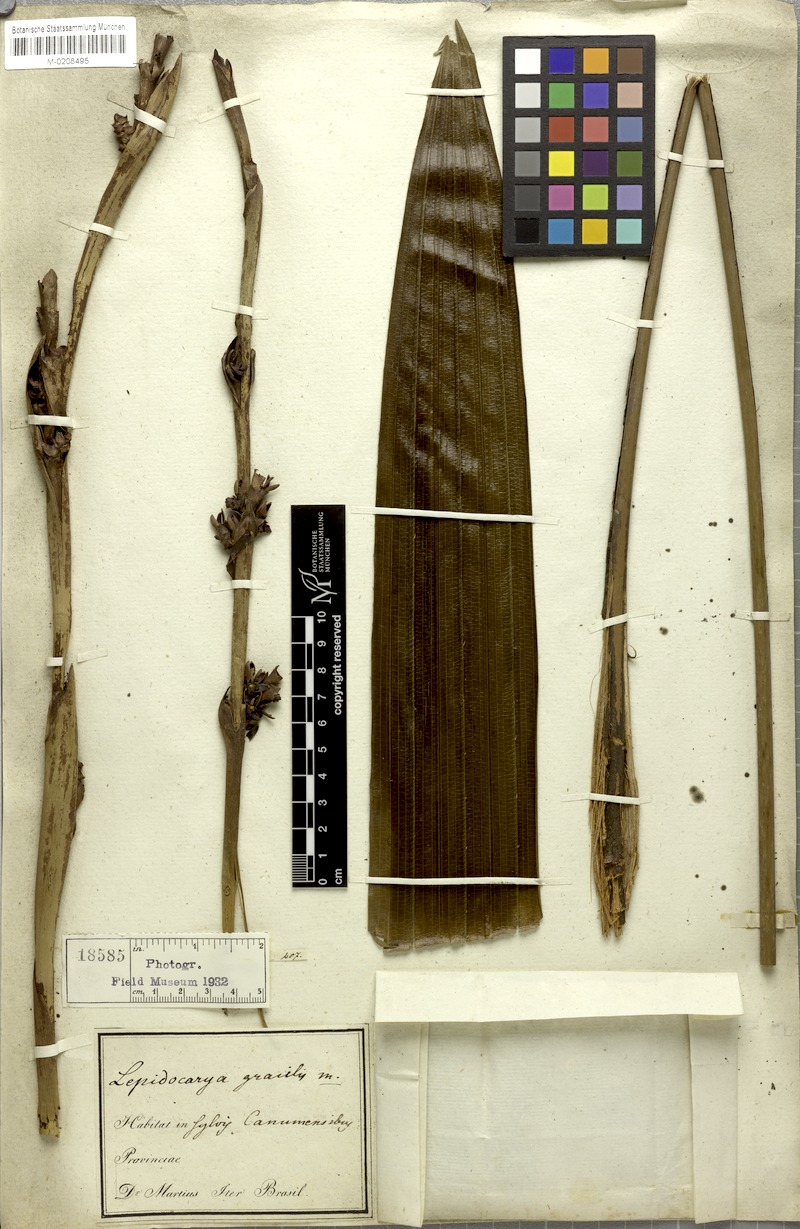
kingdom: Plantae
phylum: Tracheophyta
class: Liliopsida
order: Arecales
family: Arecaceae
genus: Lepidocaryum
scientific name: Lepidocaryum tenue
